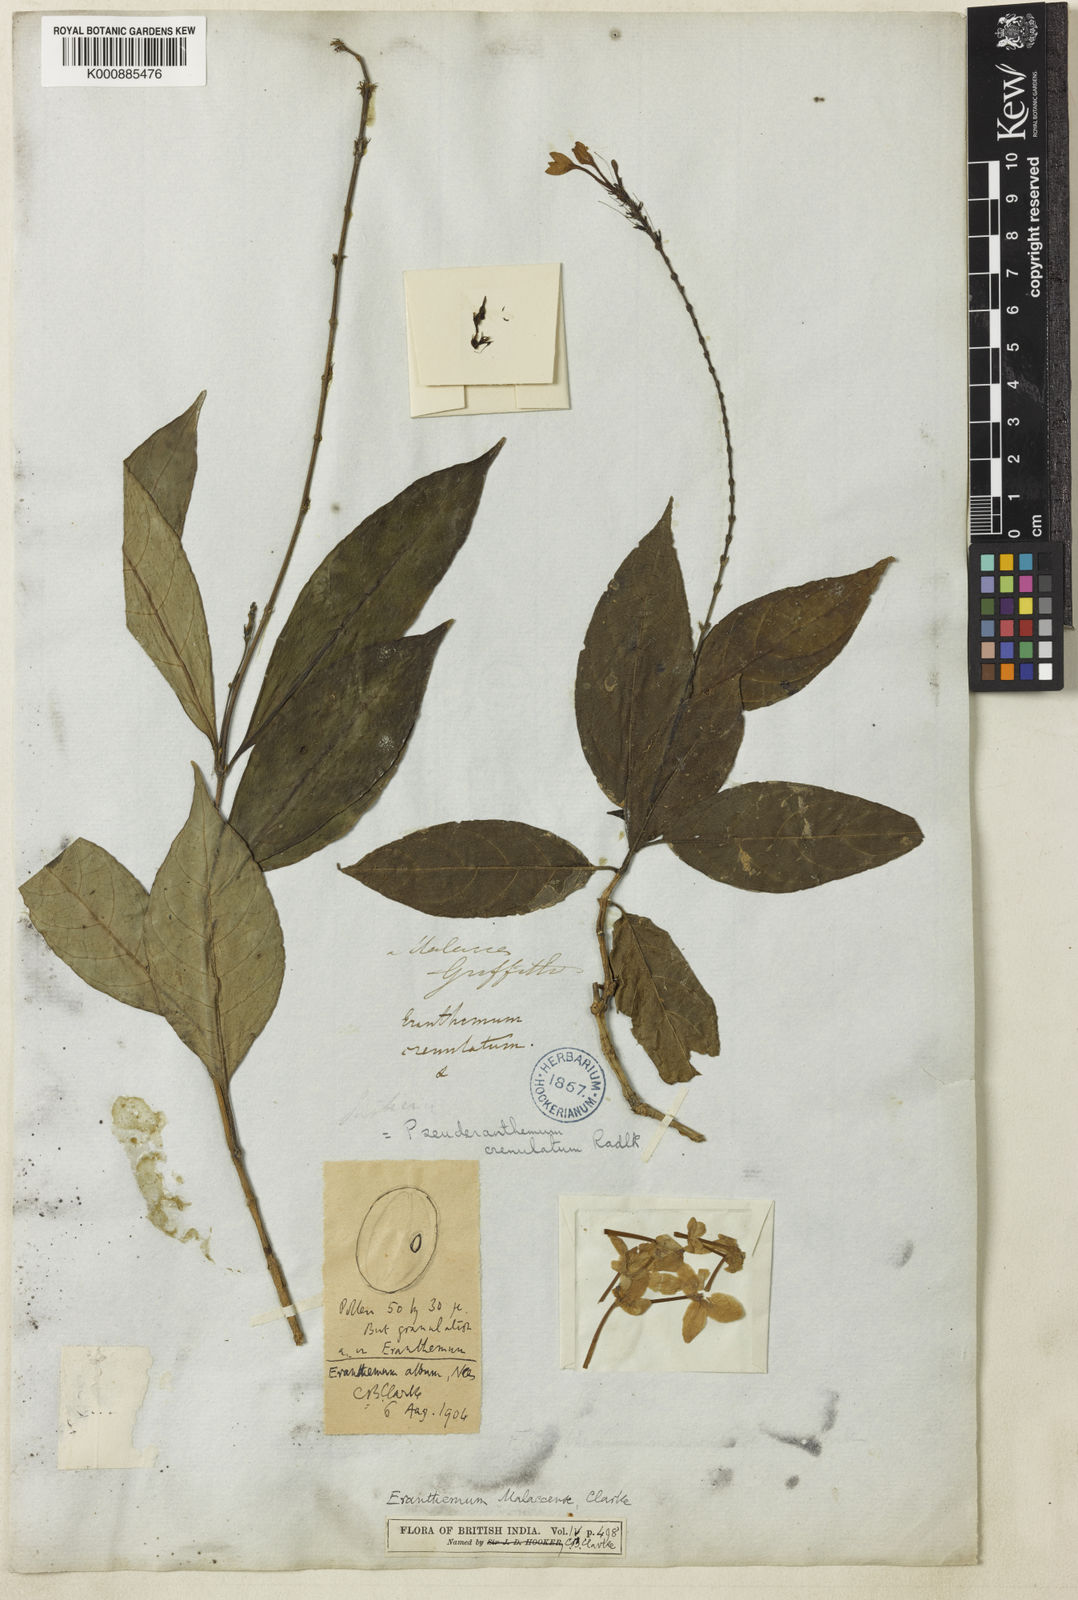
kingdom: Plantae
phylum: Tracheophyta
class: Magnoliopsida
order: Lamiales
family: Acanthaceae
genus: Pseuderanthemum
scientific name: Pseuderanthemum
